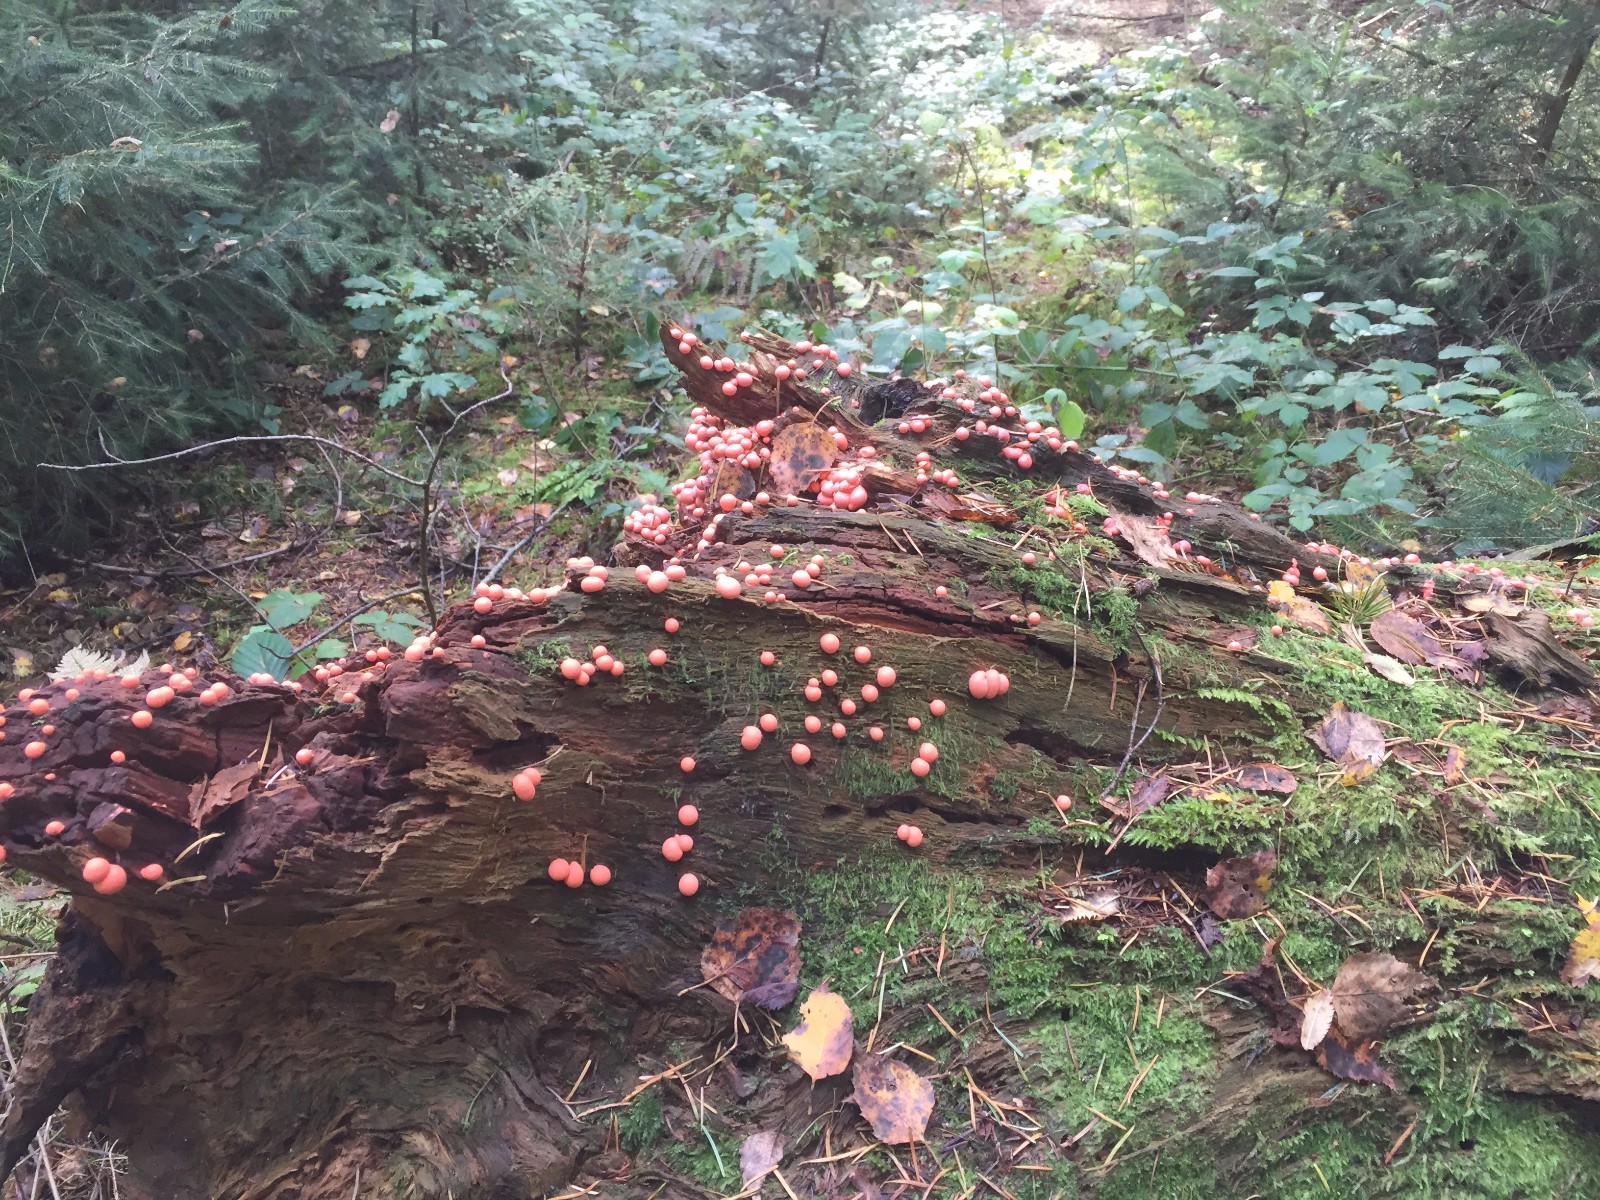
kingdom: Protozoa
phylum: Mycetozoa
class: Myxomycetes
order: Cribrariales
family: Tubiferaceae
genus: Lycogala
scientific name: Lycogala epidendrum
